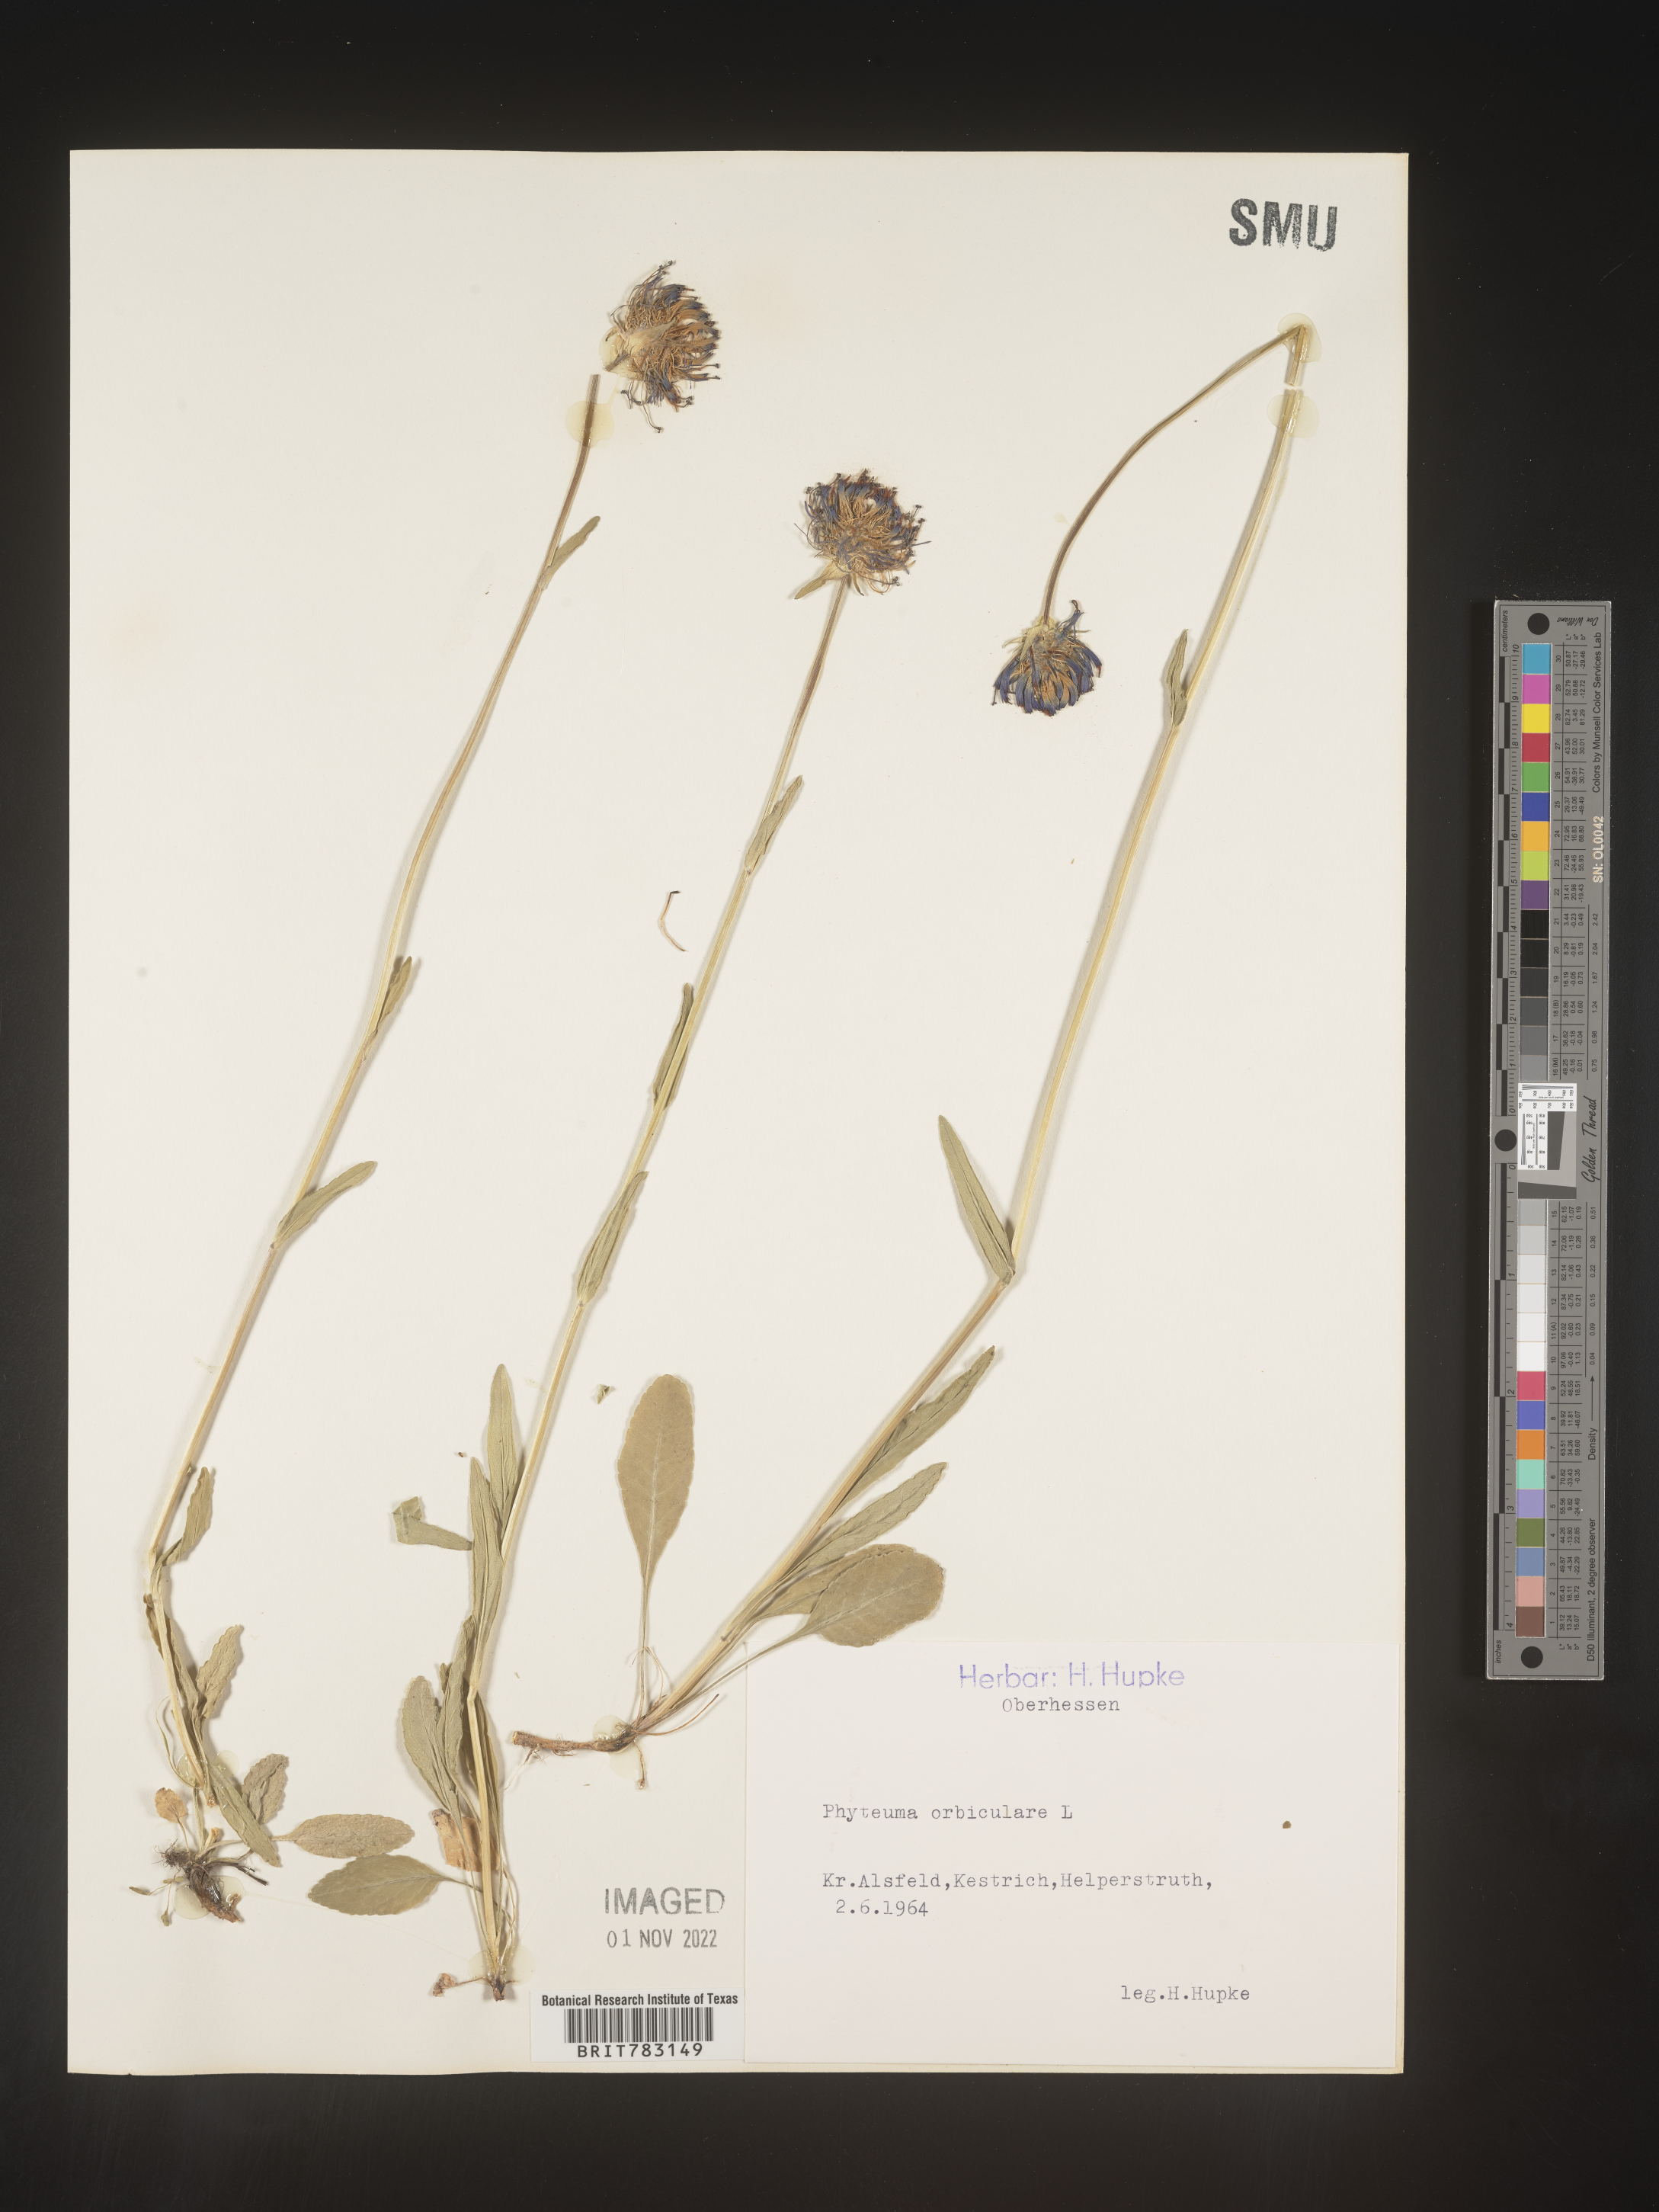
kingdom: Plantae
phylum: Tracheophyta
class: Magnoliopsida
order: Asterales
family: Campanulaceae
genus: Phyteuma
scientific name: Phyteuma
